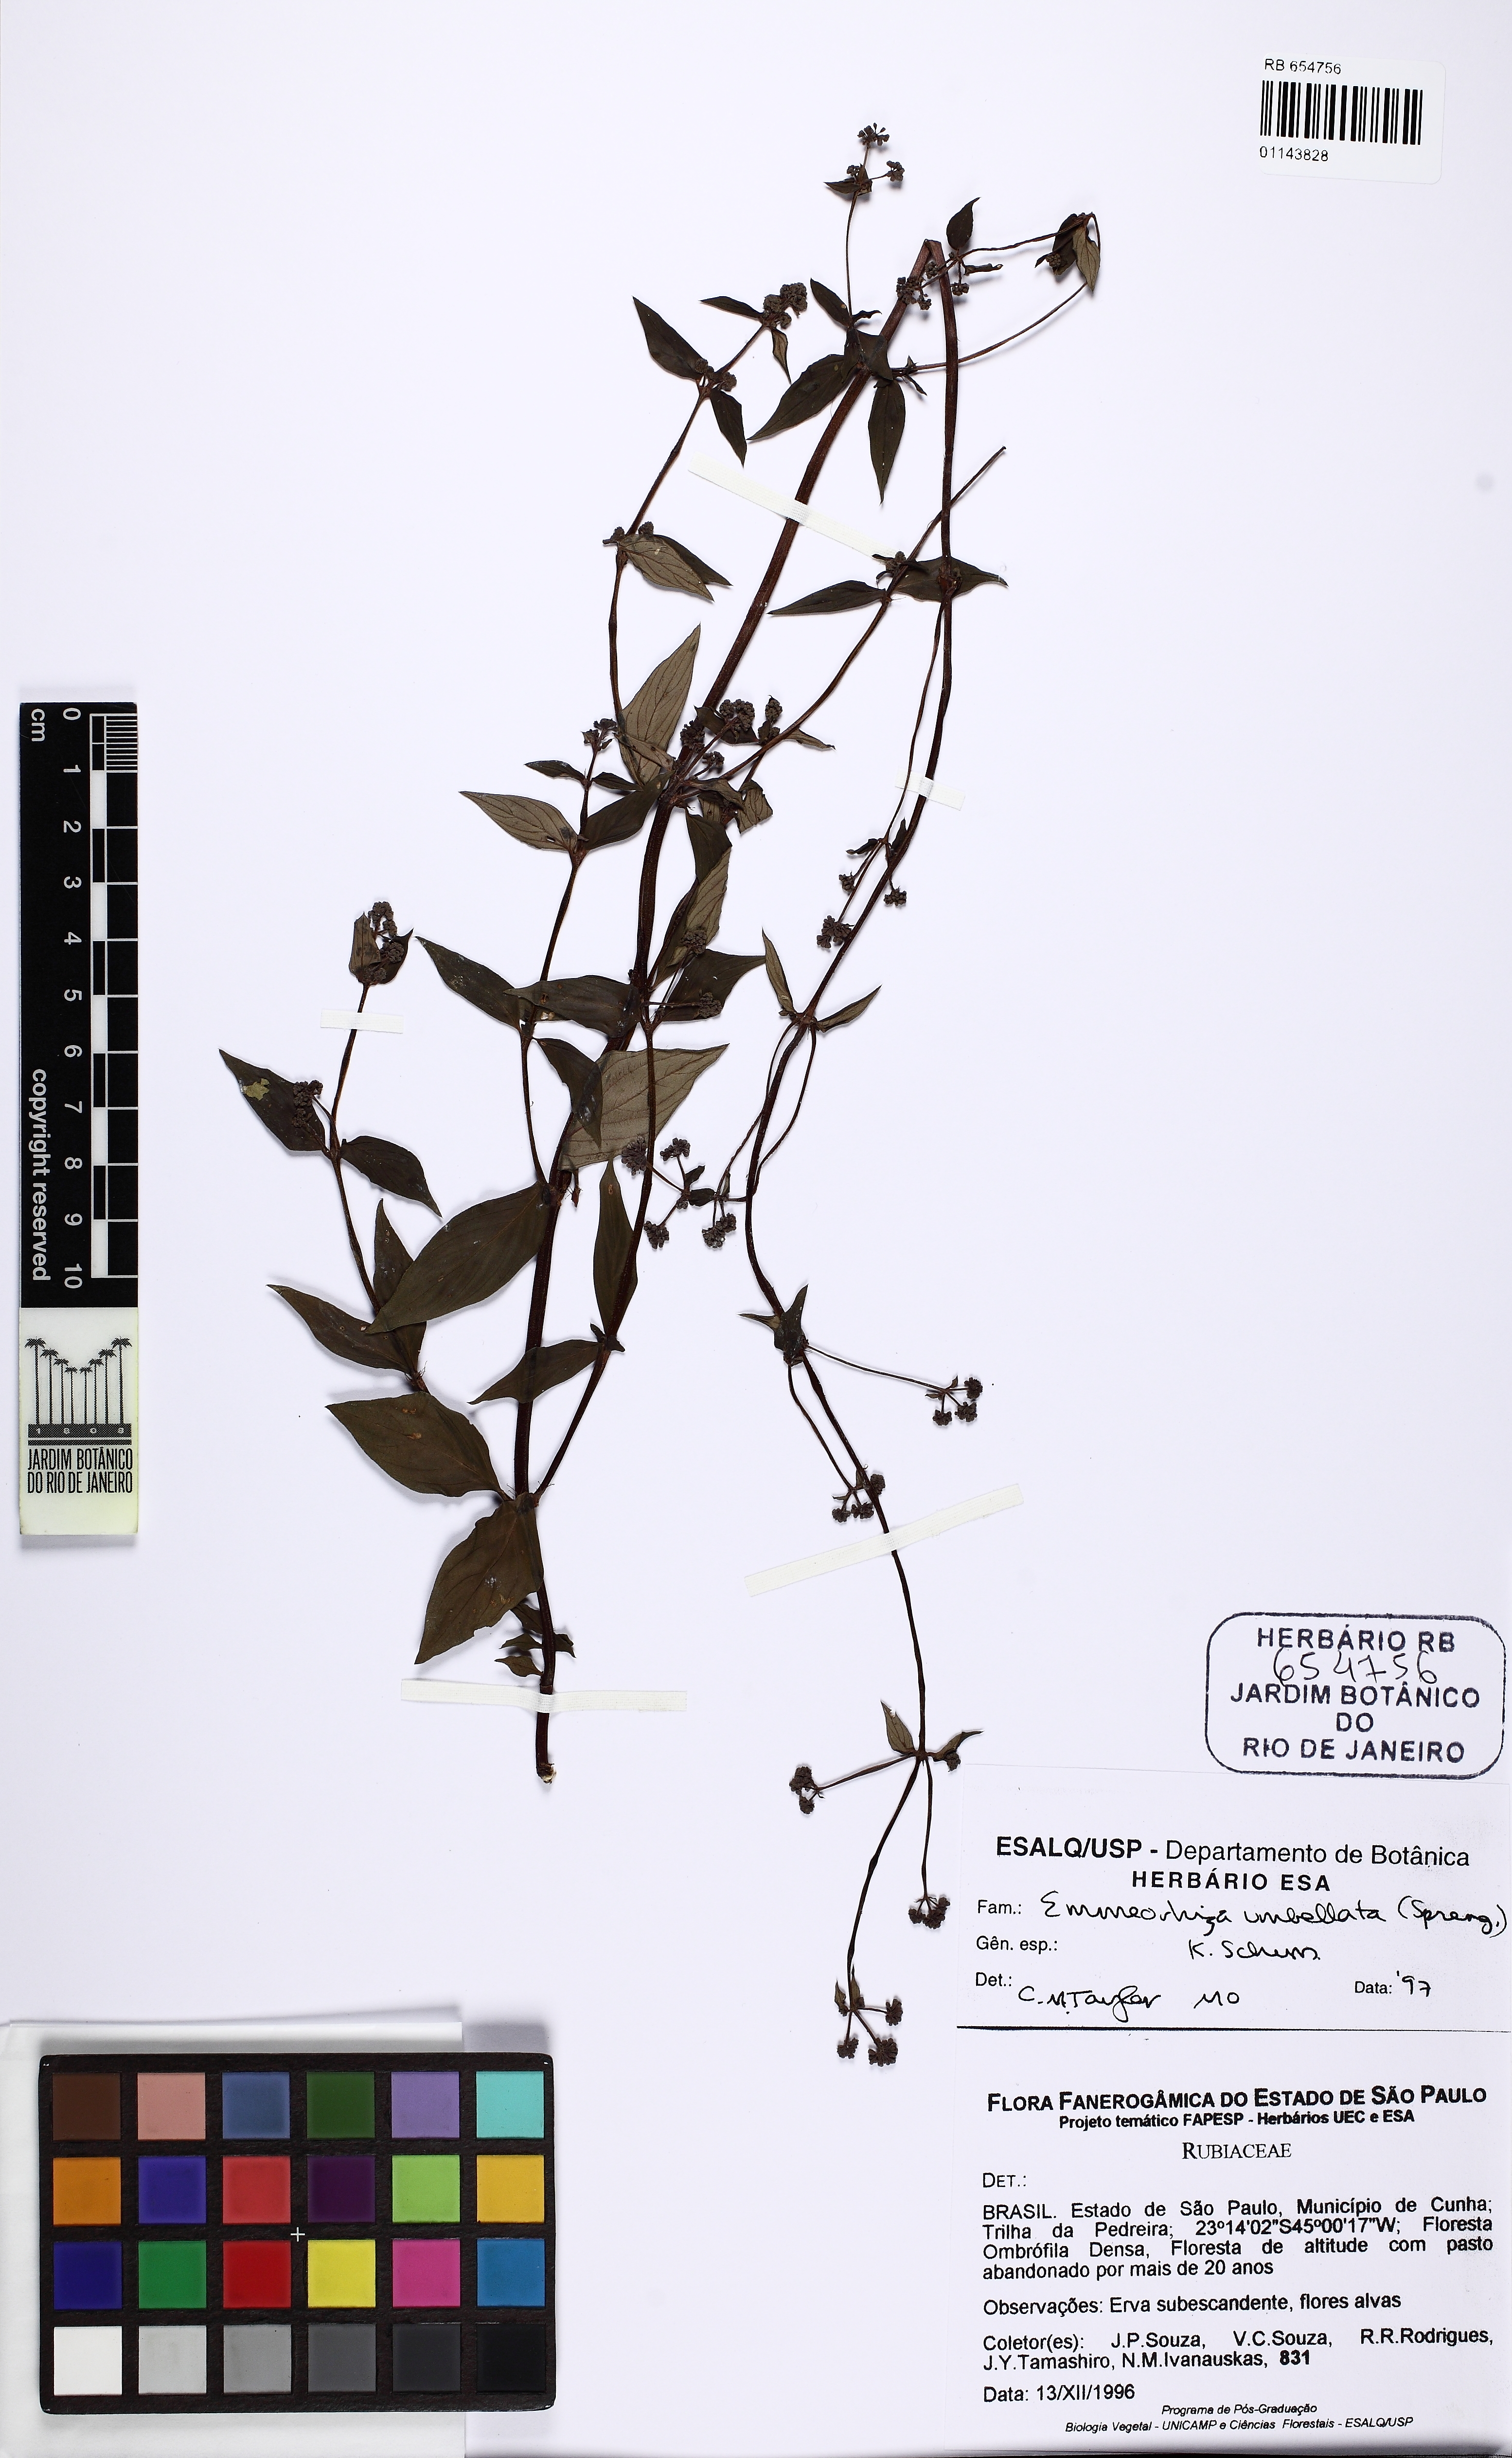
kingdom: Plantae
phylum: Tracheophyta
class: Magnoliopsida
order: Gentianales
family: Rubiaceae
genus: Emmeorhiza
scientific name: Emmeorhiza umbellata
